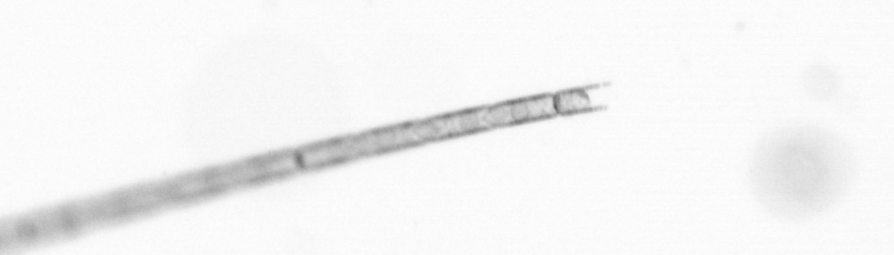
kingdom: Chromista
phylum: Ochrophyta
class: Bacillariophyceae
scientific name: Bacillariophyceae
